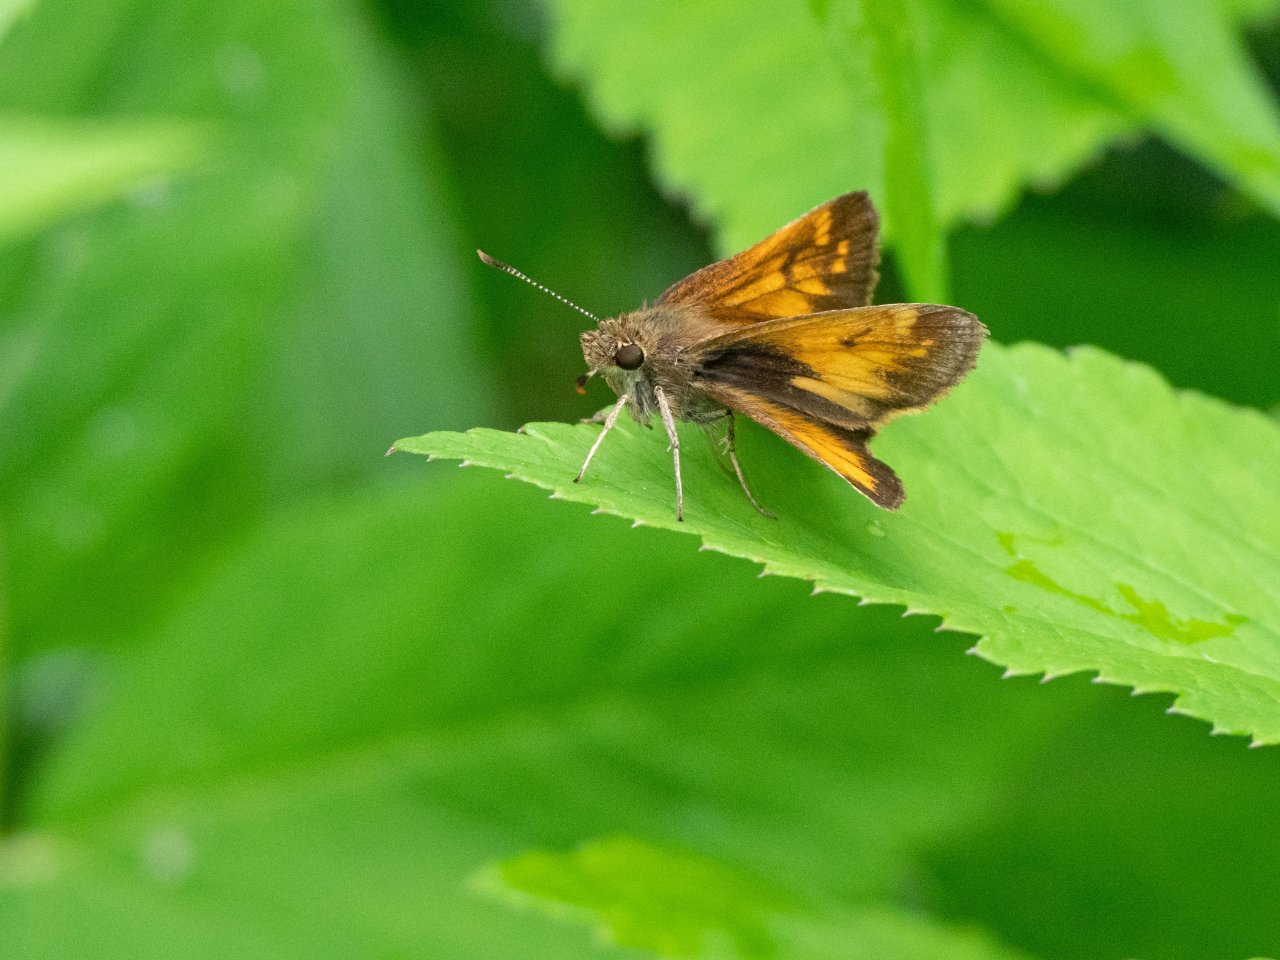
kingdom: Animalia
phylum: Arthropoda
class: Insecta
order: Lepidoptera
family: Hesperiidae
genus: Lon
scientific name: Lon hobomok
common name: Hobomok Skipper
